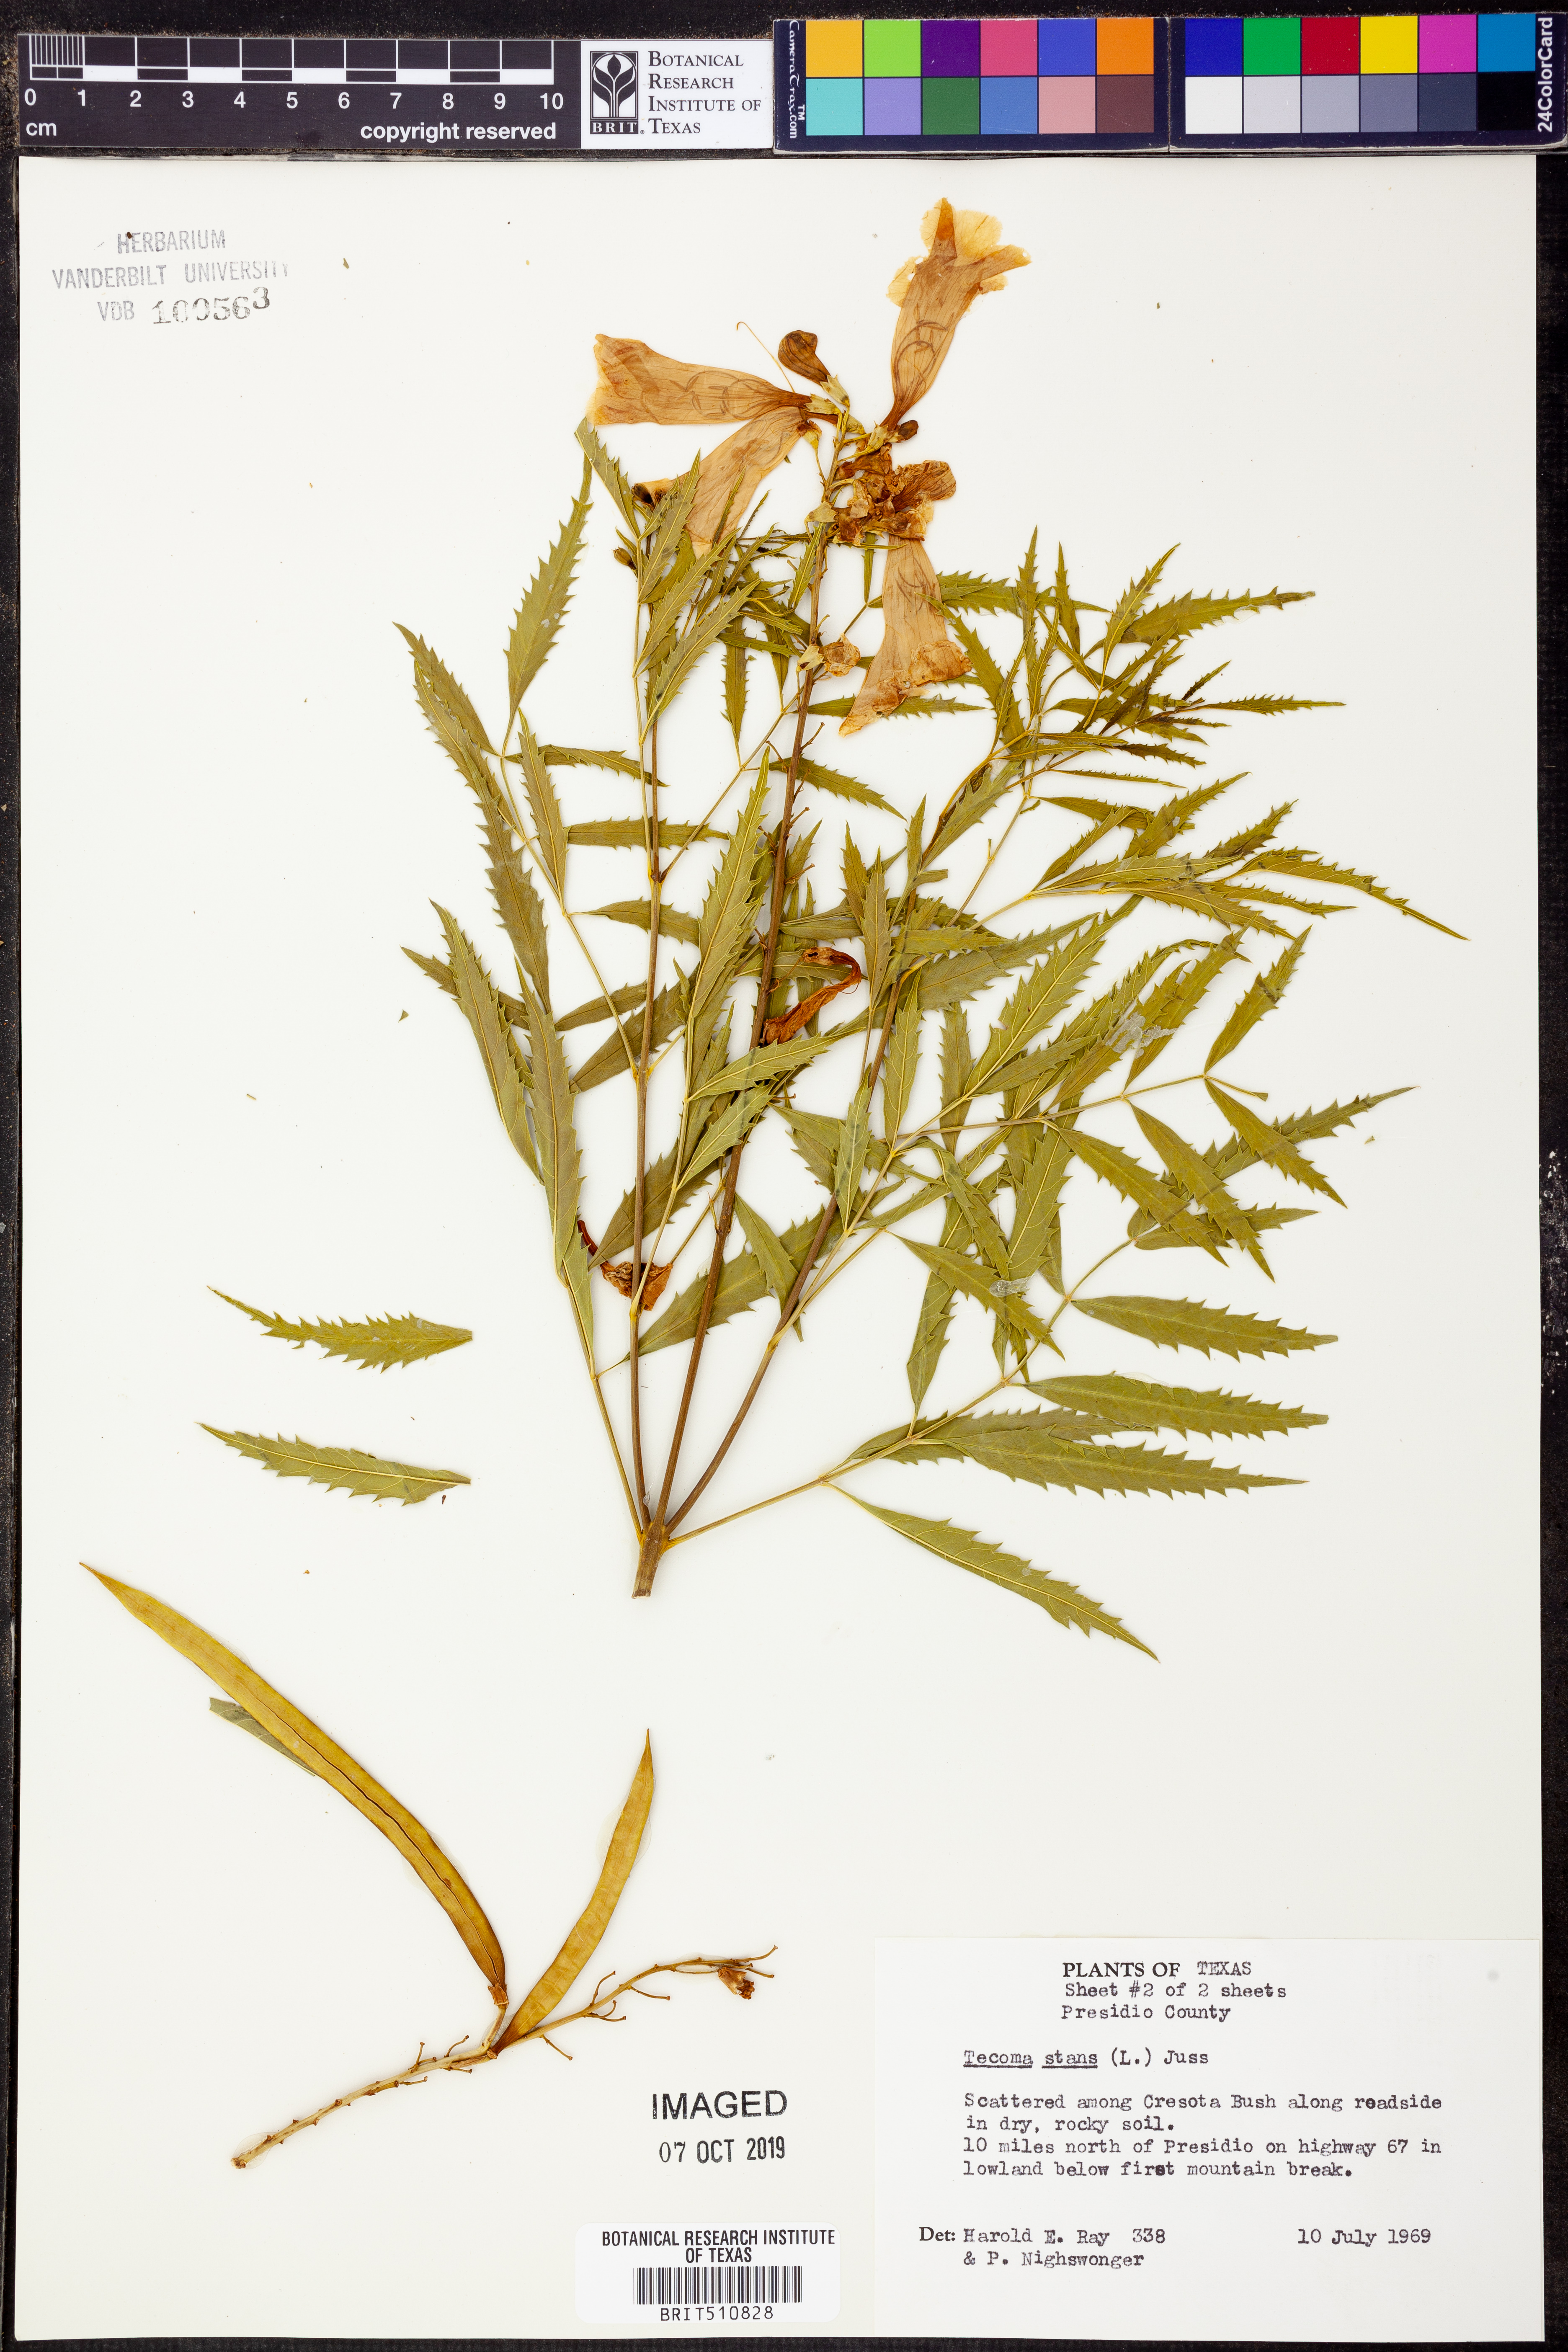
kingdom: Plantae
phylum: Tracheophyta
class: Magnoliopsida
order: Lamiales
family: Bignoniaceae
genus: Tecoma
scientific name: Tecoma stans
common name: Yellow trumpetbush
